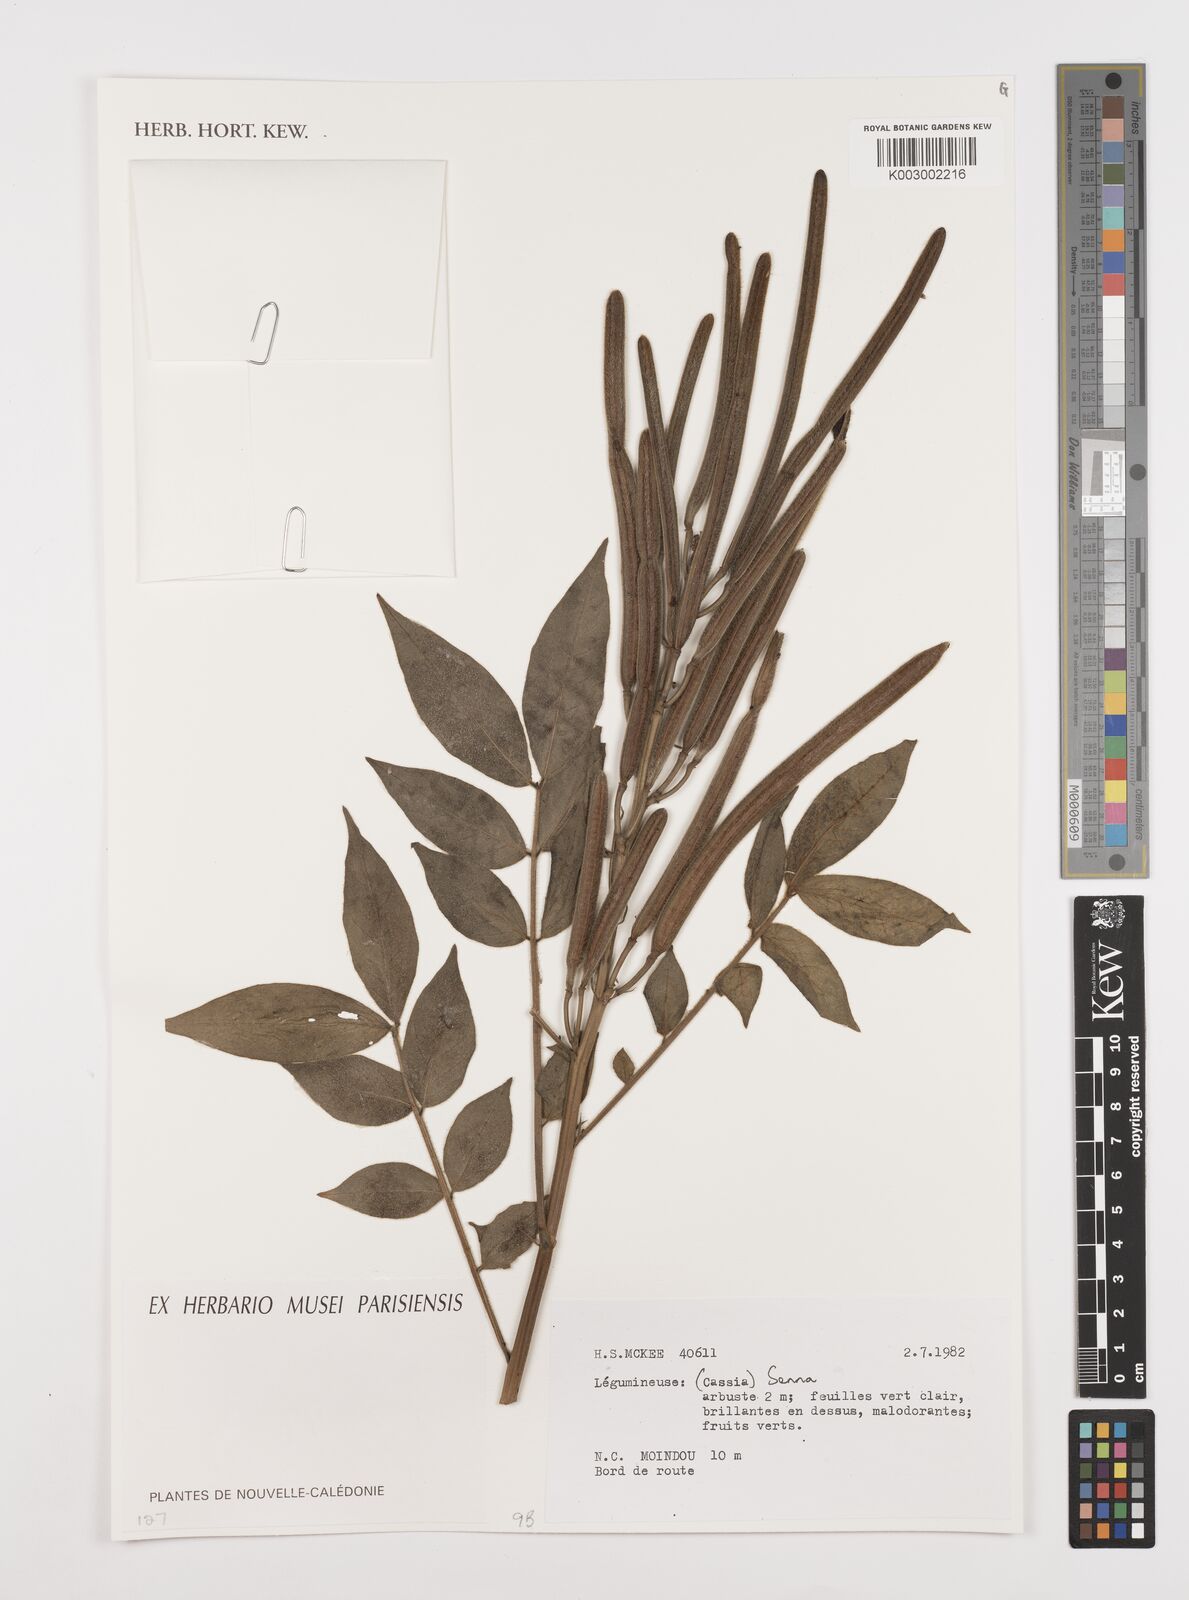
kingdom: Plantae
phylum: Tracheophyta
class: Magnoliopsida
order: Fabales
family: Fabaceae
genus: Cassia
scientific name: Cassia
